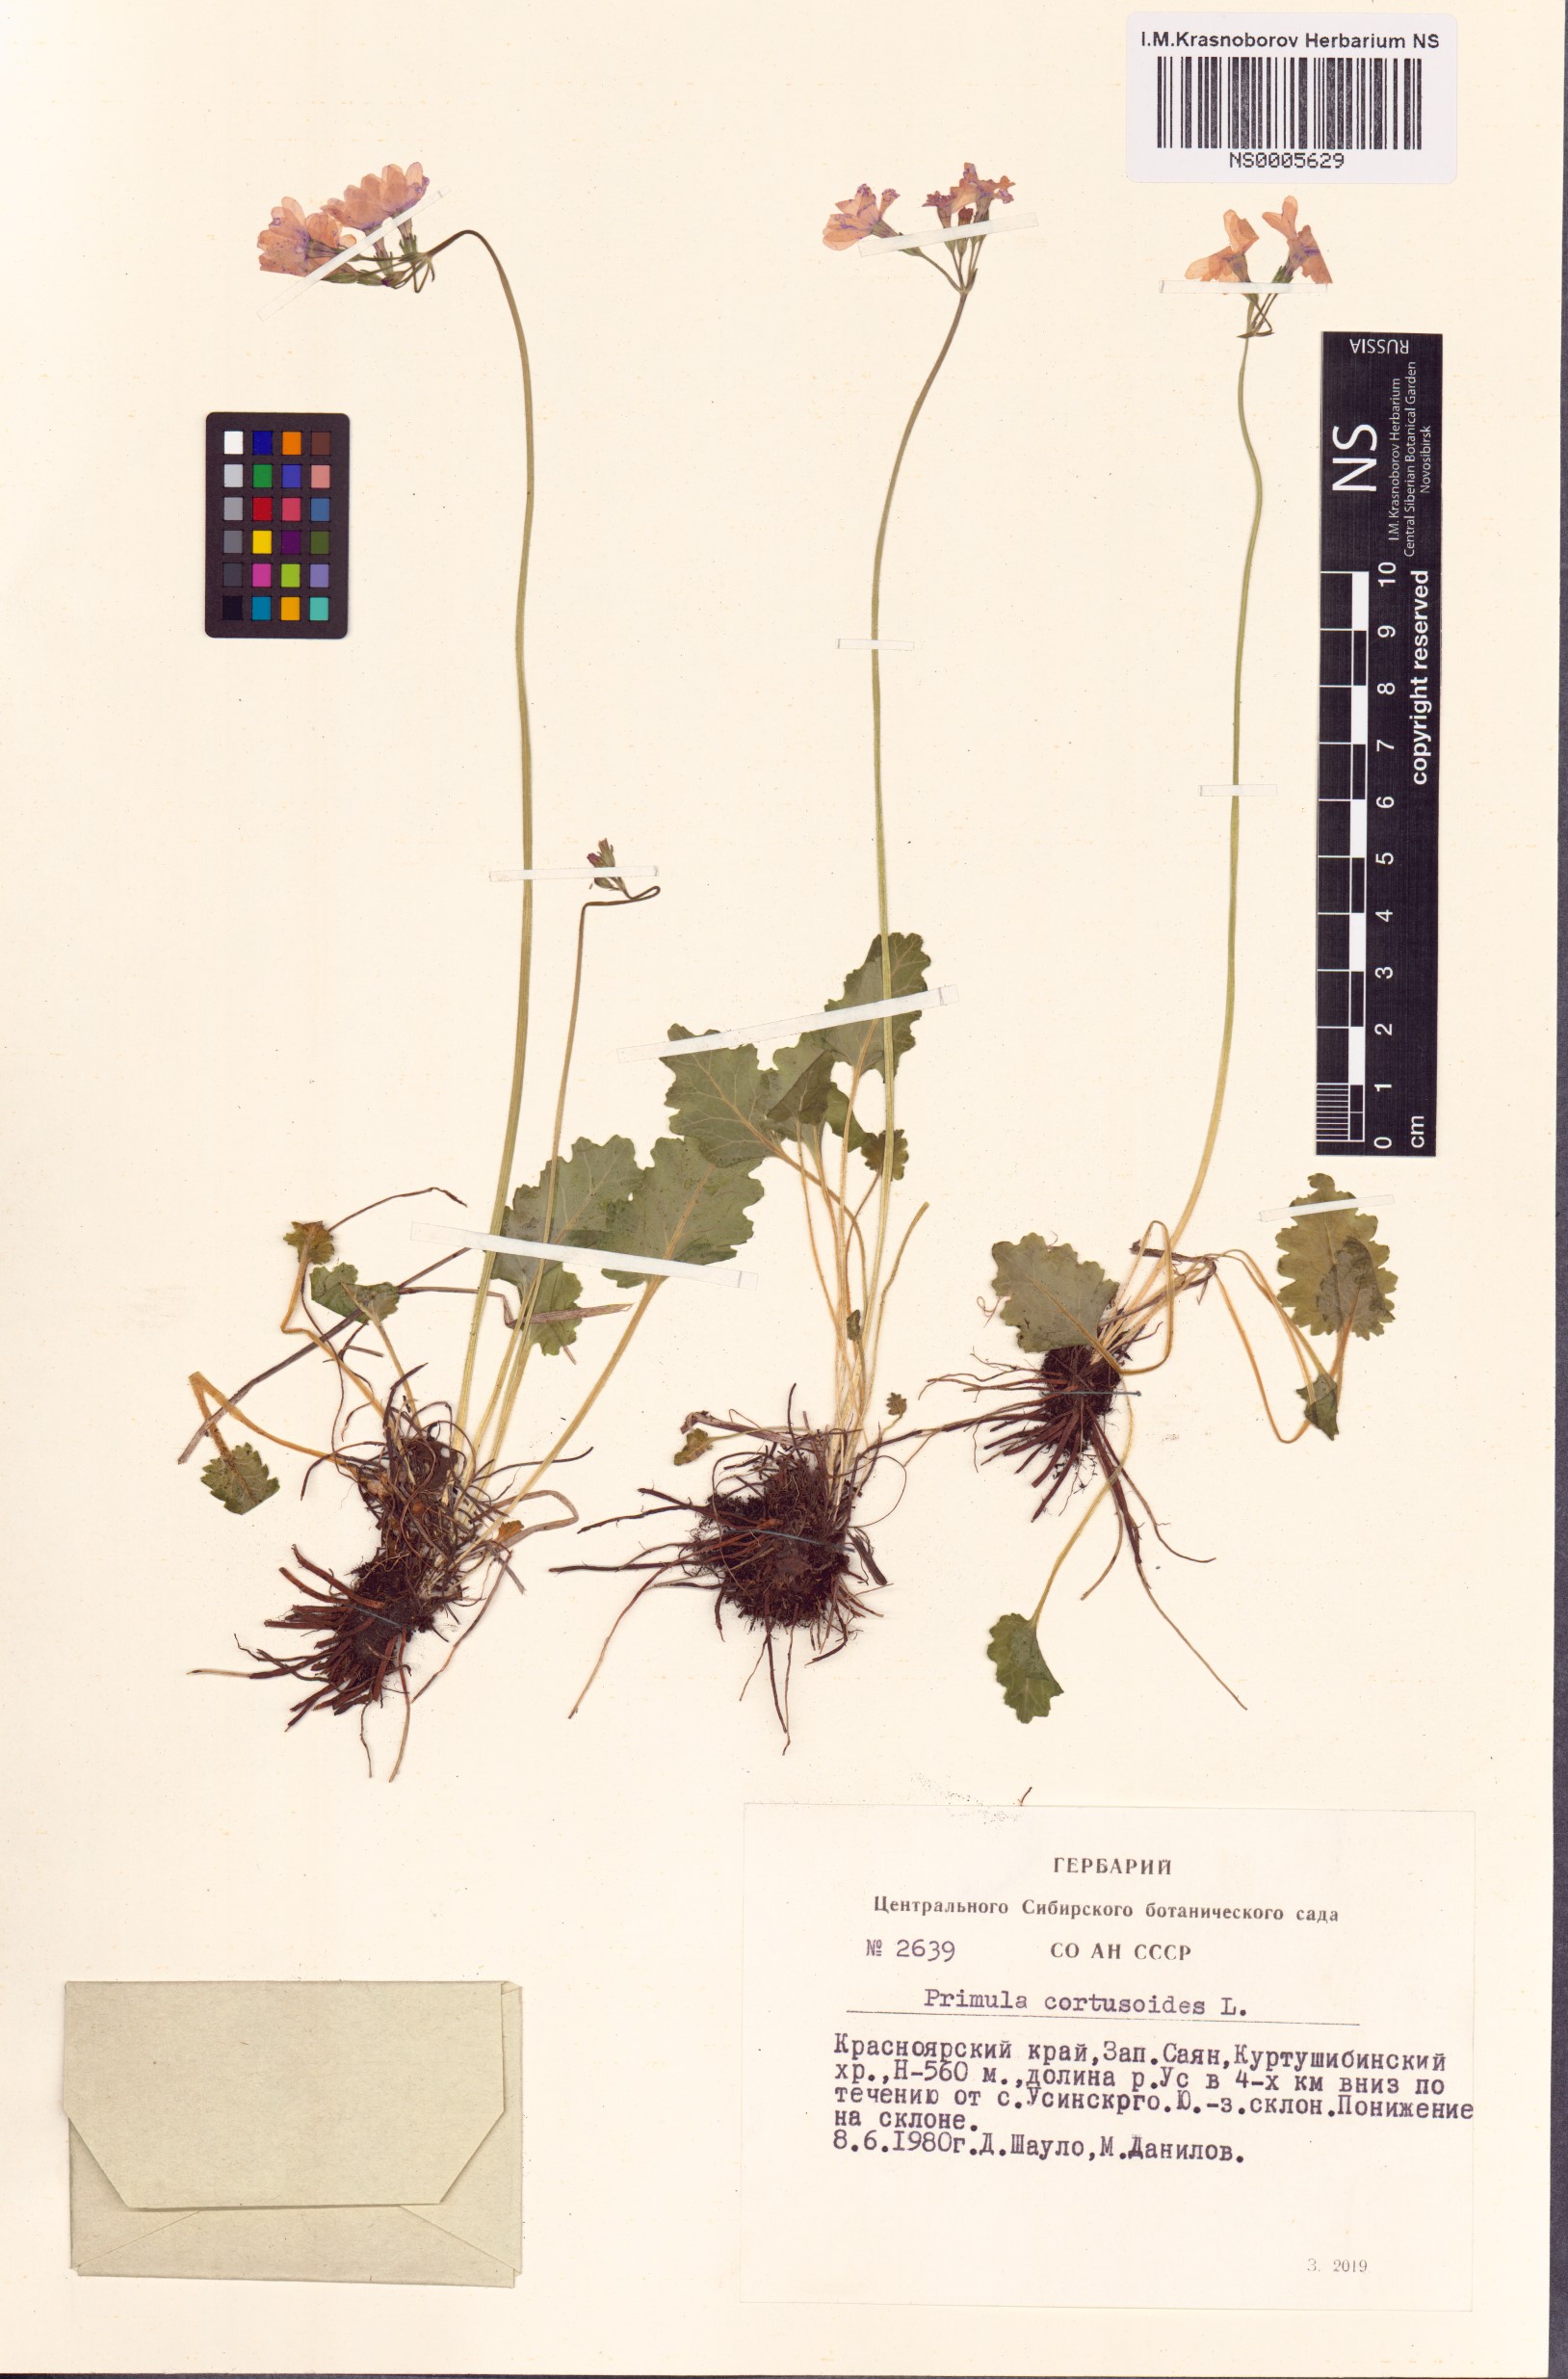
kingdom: Plantae
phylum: Tracheophyta
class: Magnoliopsida
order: Ericales
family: Primulaceae
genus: Primula
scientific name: Primula cortusoides
